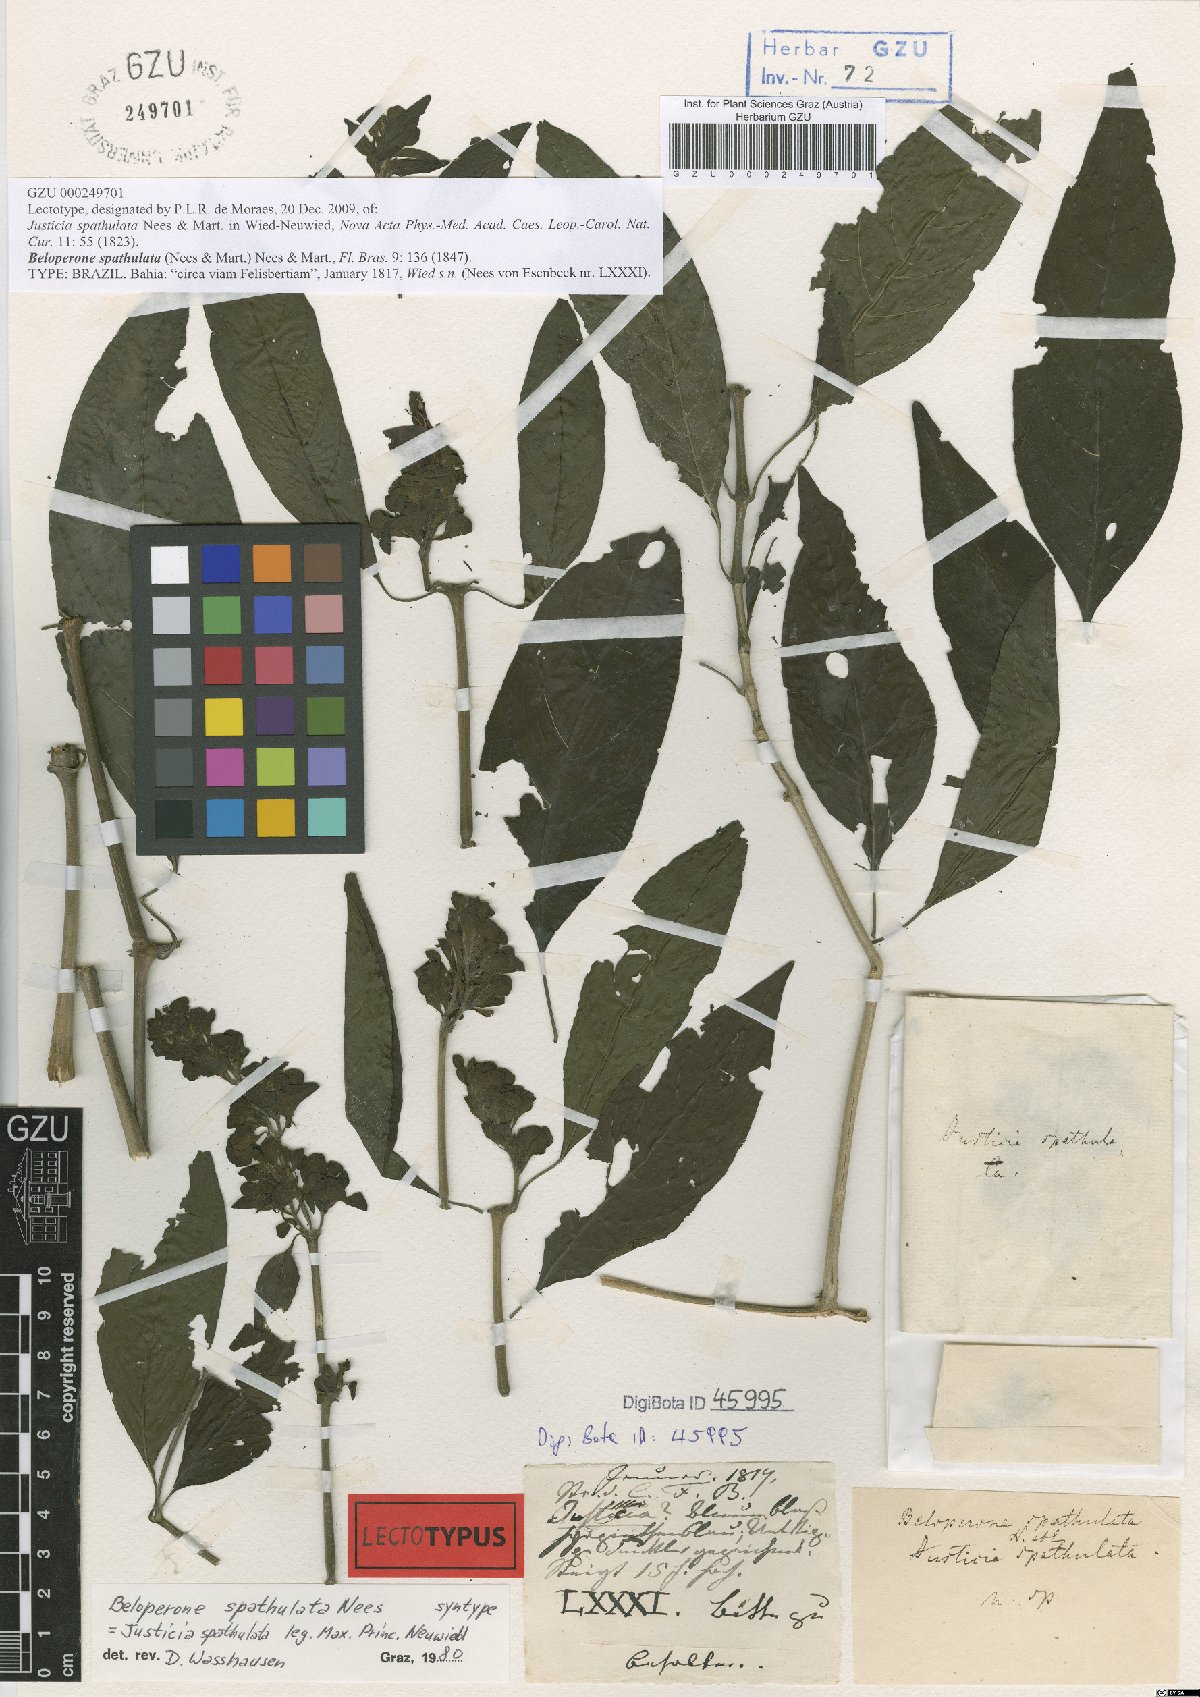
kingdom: Plantae
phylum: Tracheophyta
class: Magnoliopsida
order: Lamiales
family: Acanthaceae
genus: Poikilacanthus
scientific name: Poikilacanthus glandulosus
